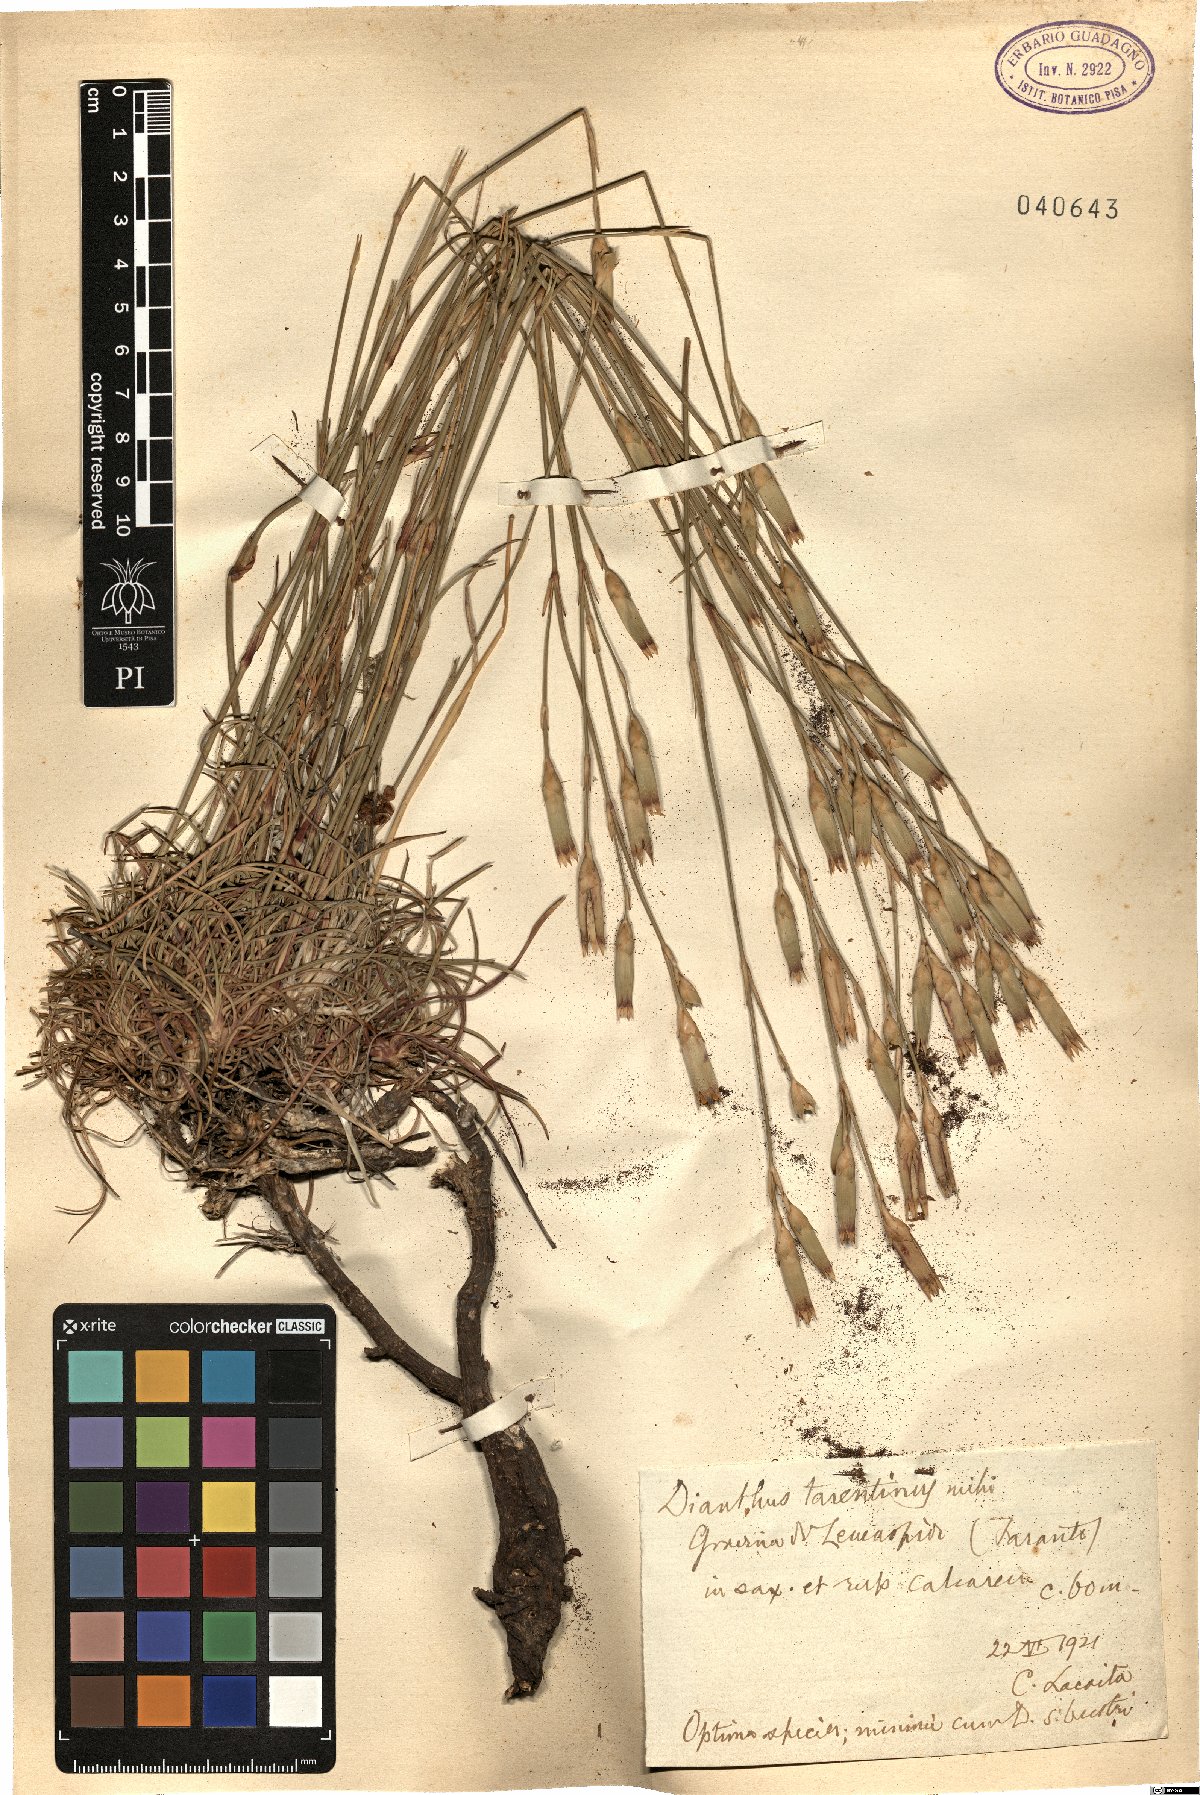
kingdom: Plantae
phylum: Tracheophyta
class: Magnoliopsida
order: Caryophyllales
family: Caryophyllaceae
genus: Dianthus
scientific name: Dianthus tarentinus
